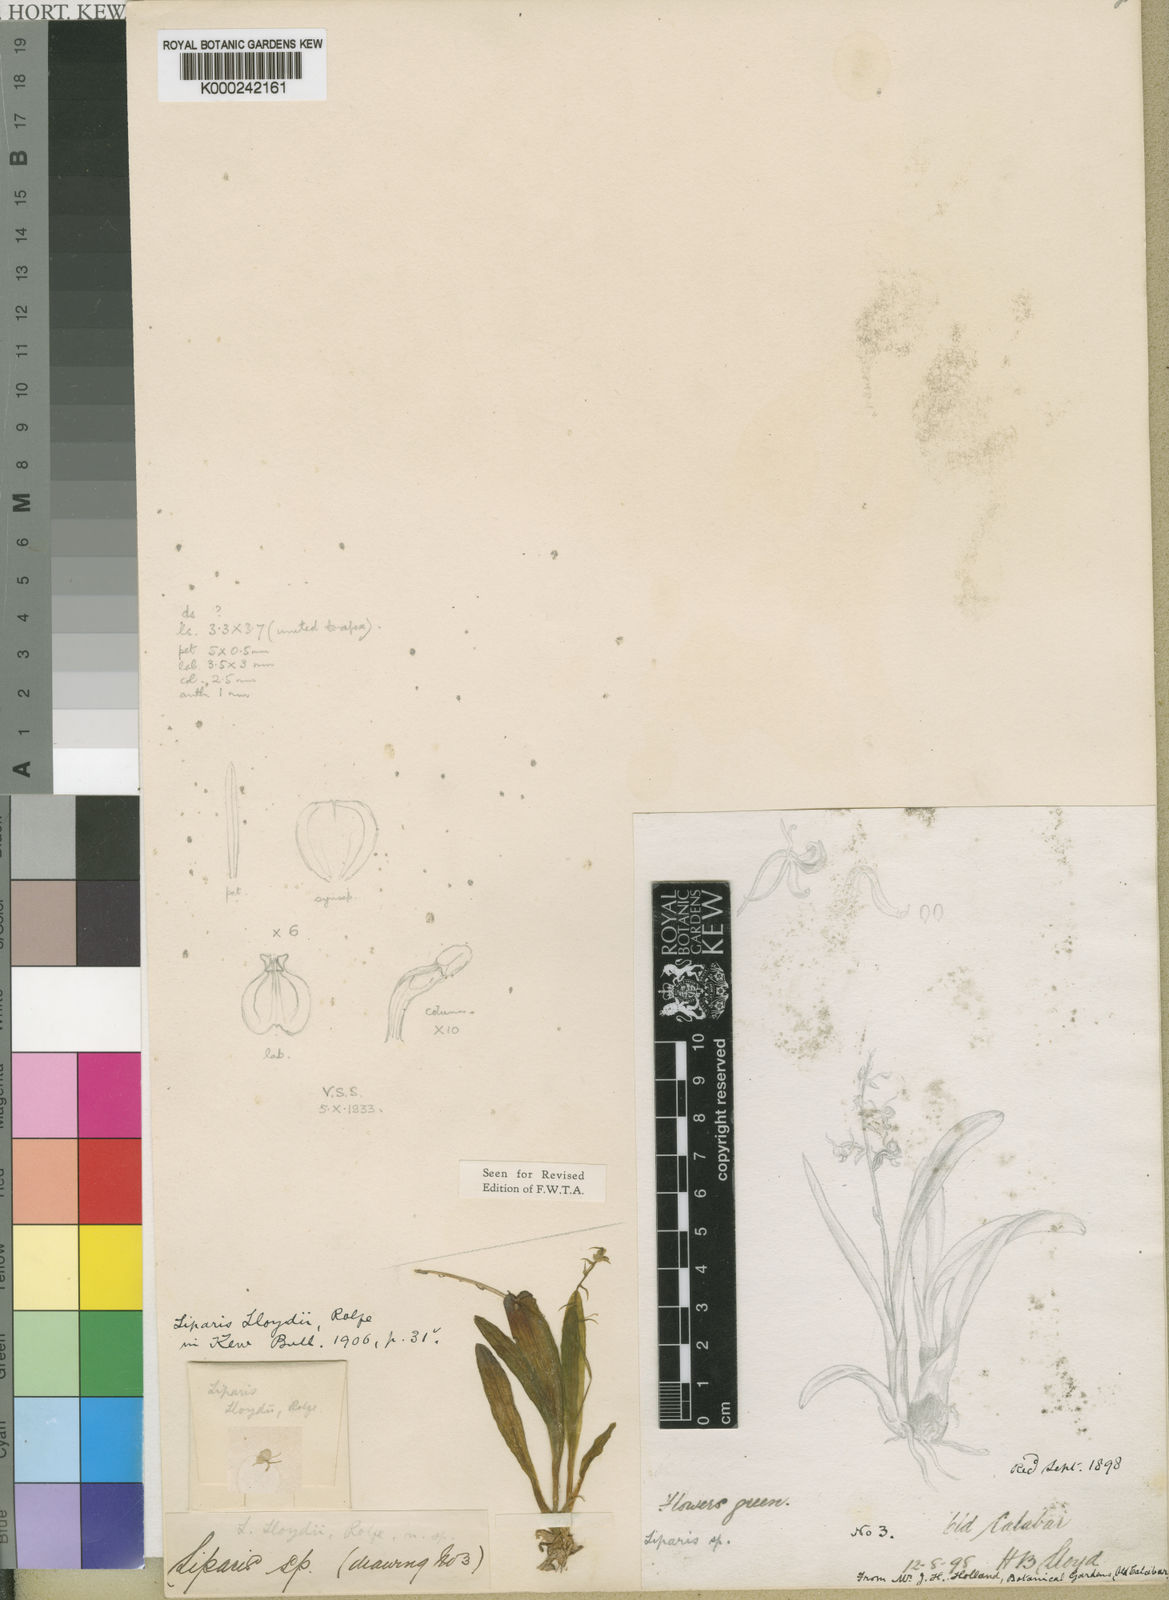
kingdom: Plantae
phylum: Tracheophyta
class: Liliopsida
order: Asparagales
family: Orchidaceae
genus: Liparis
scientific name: Liparis epiphytica
